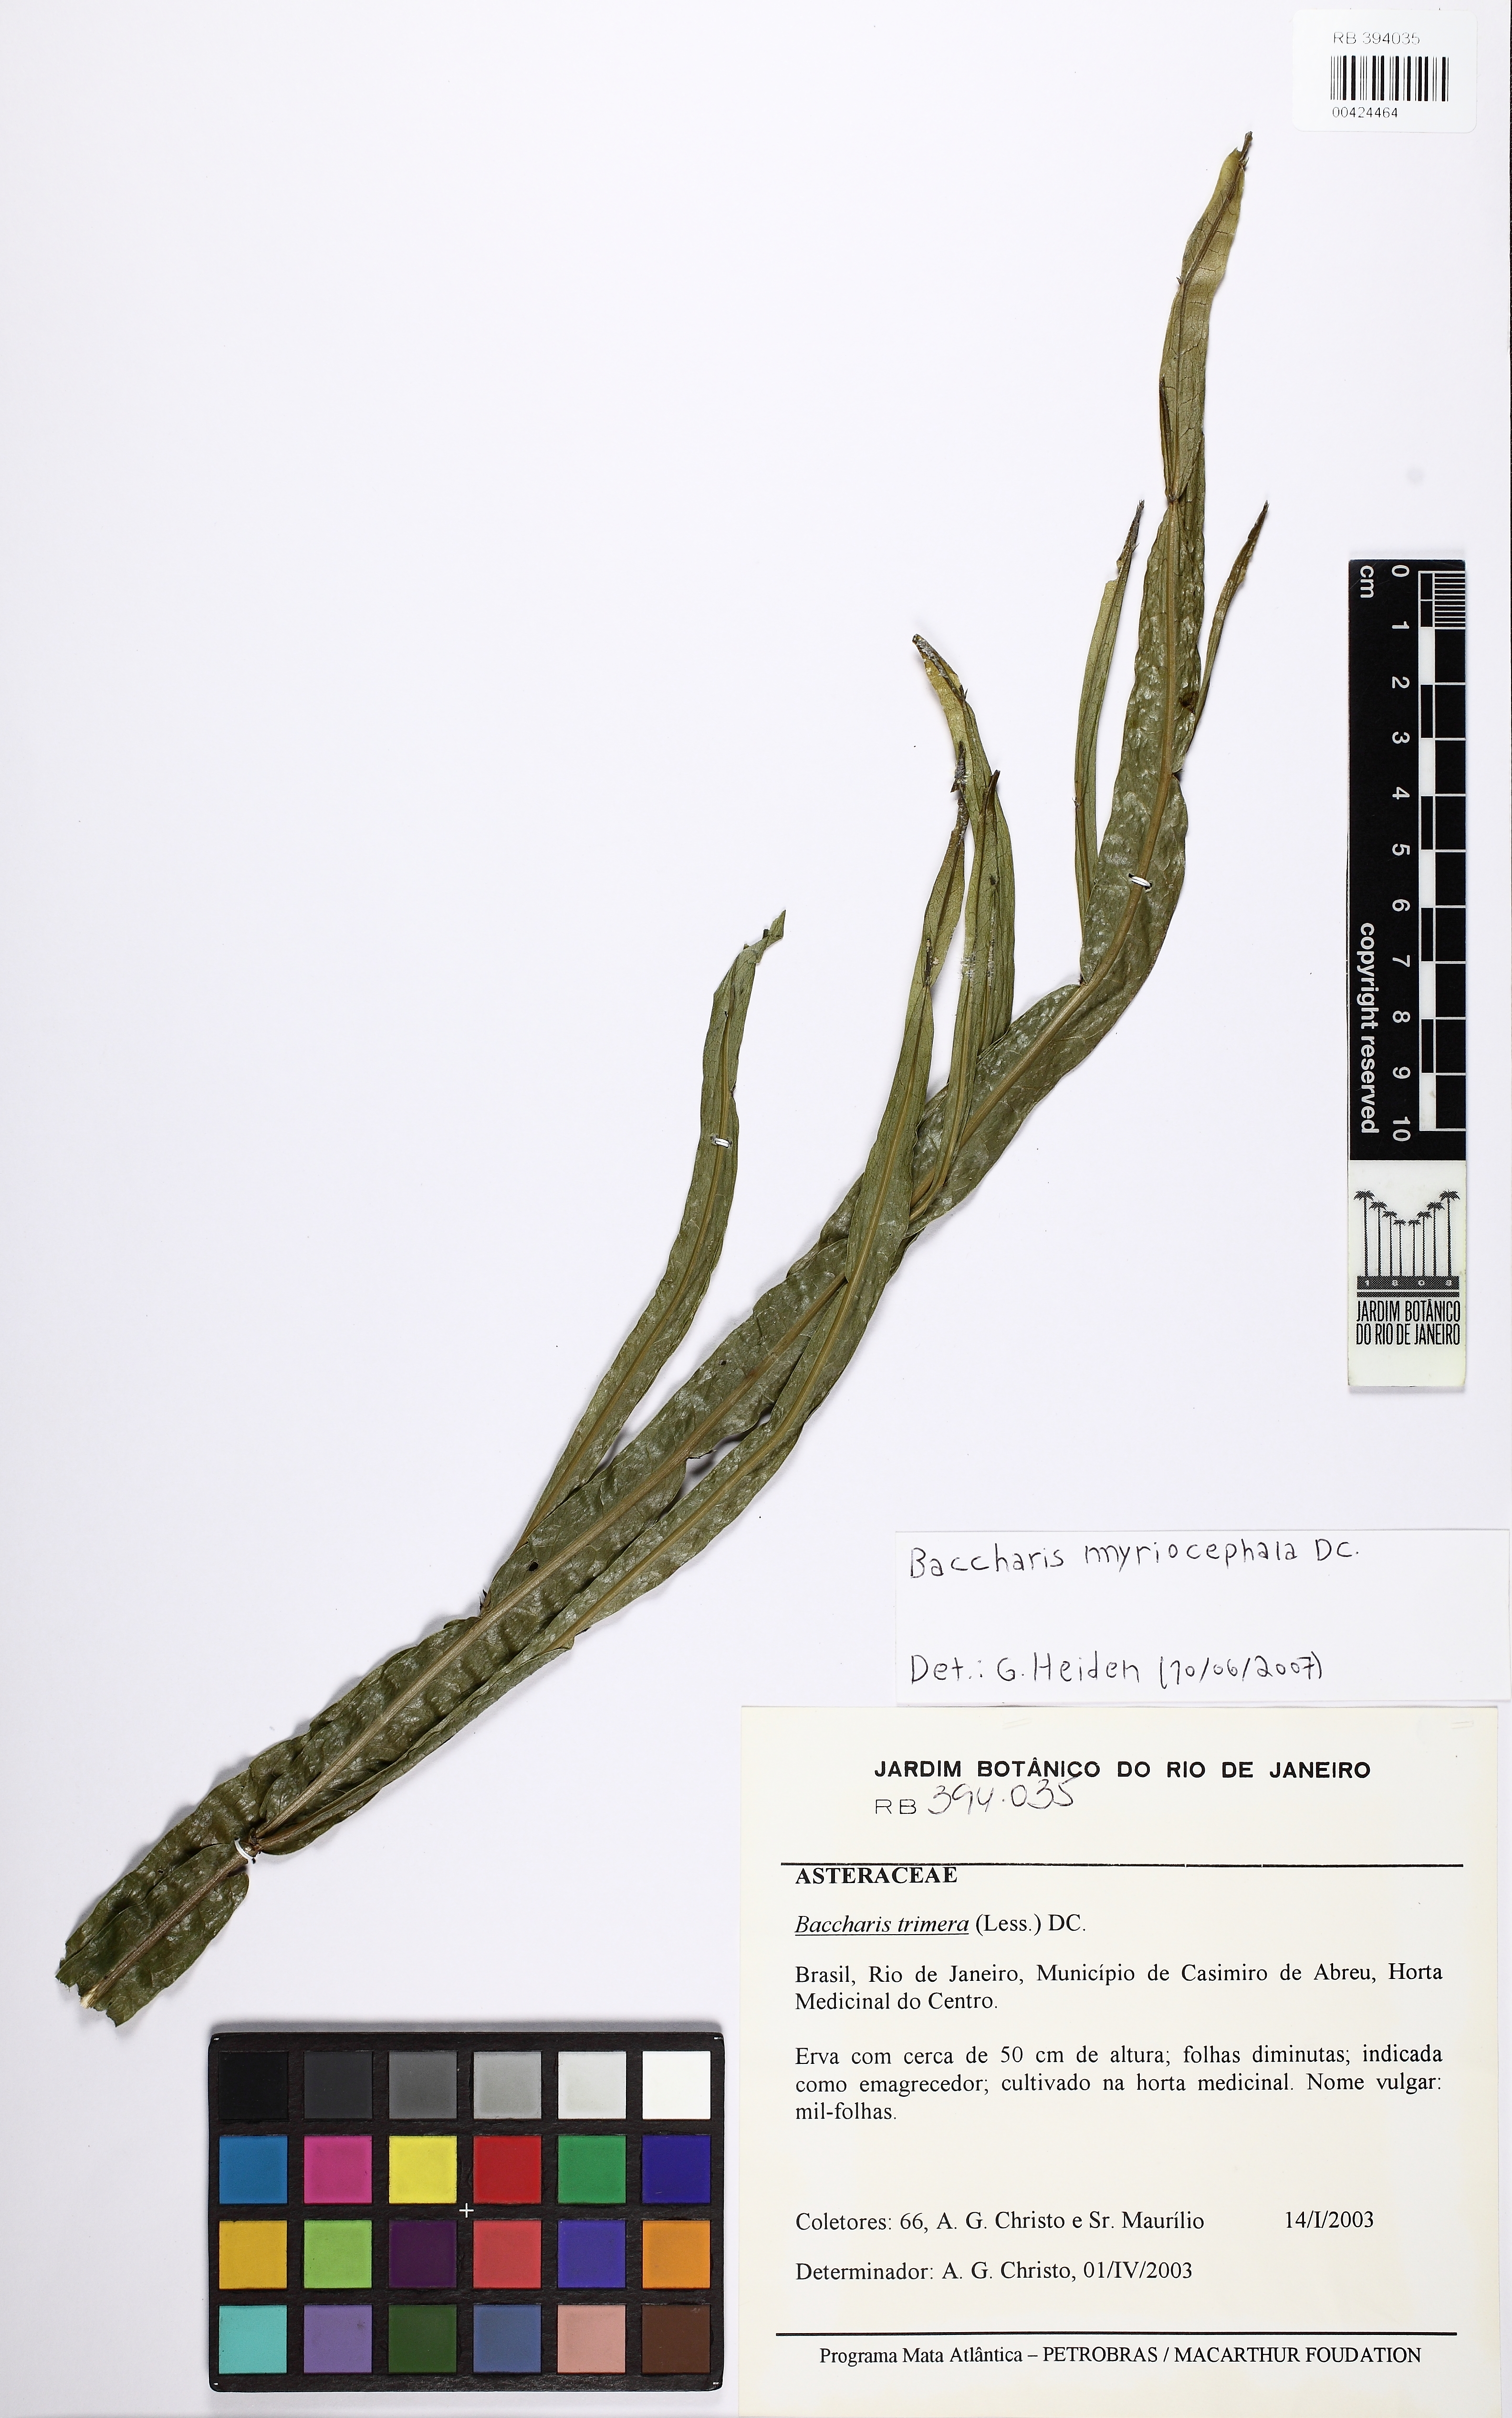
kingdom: Plantae
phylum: Tracheophyta
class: Magnoliopsida
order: Asterales
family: Asteraceae
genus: Baccharis
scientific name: Baccharis myriocephala
